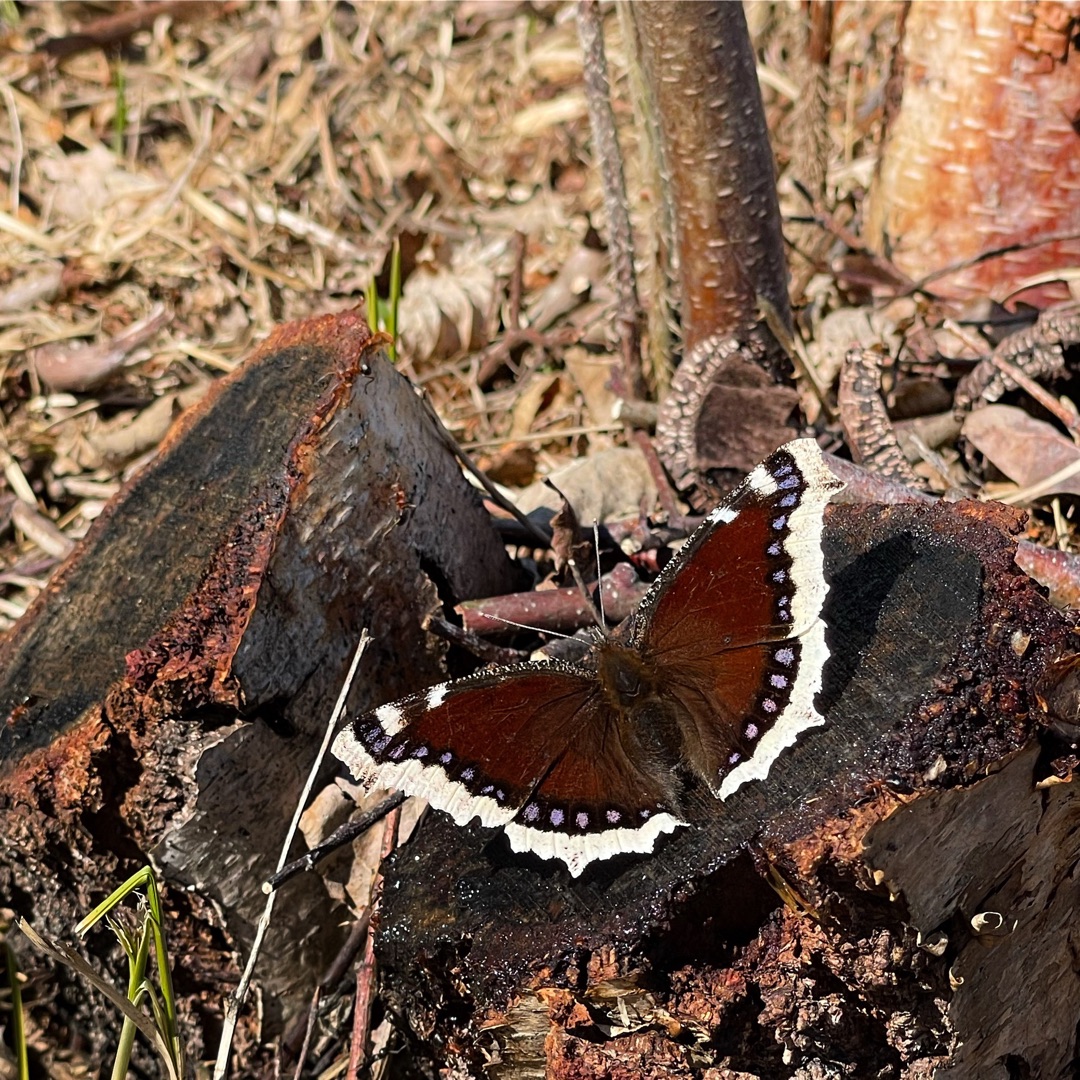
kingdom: Animalia
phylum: Arthropoda
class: Insecta
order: Lepidoptera
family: Nymphalidae
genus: Nymphalis
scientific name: Nymphalis antiopa
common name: Sørgekåbe
